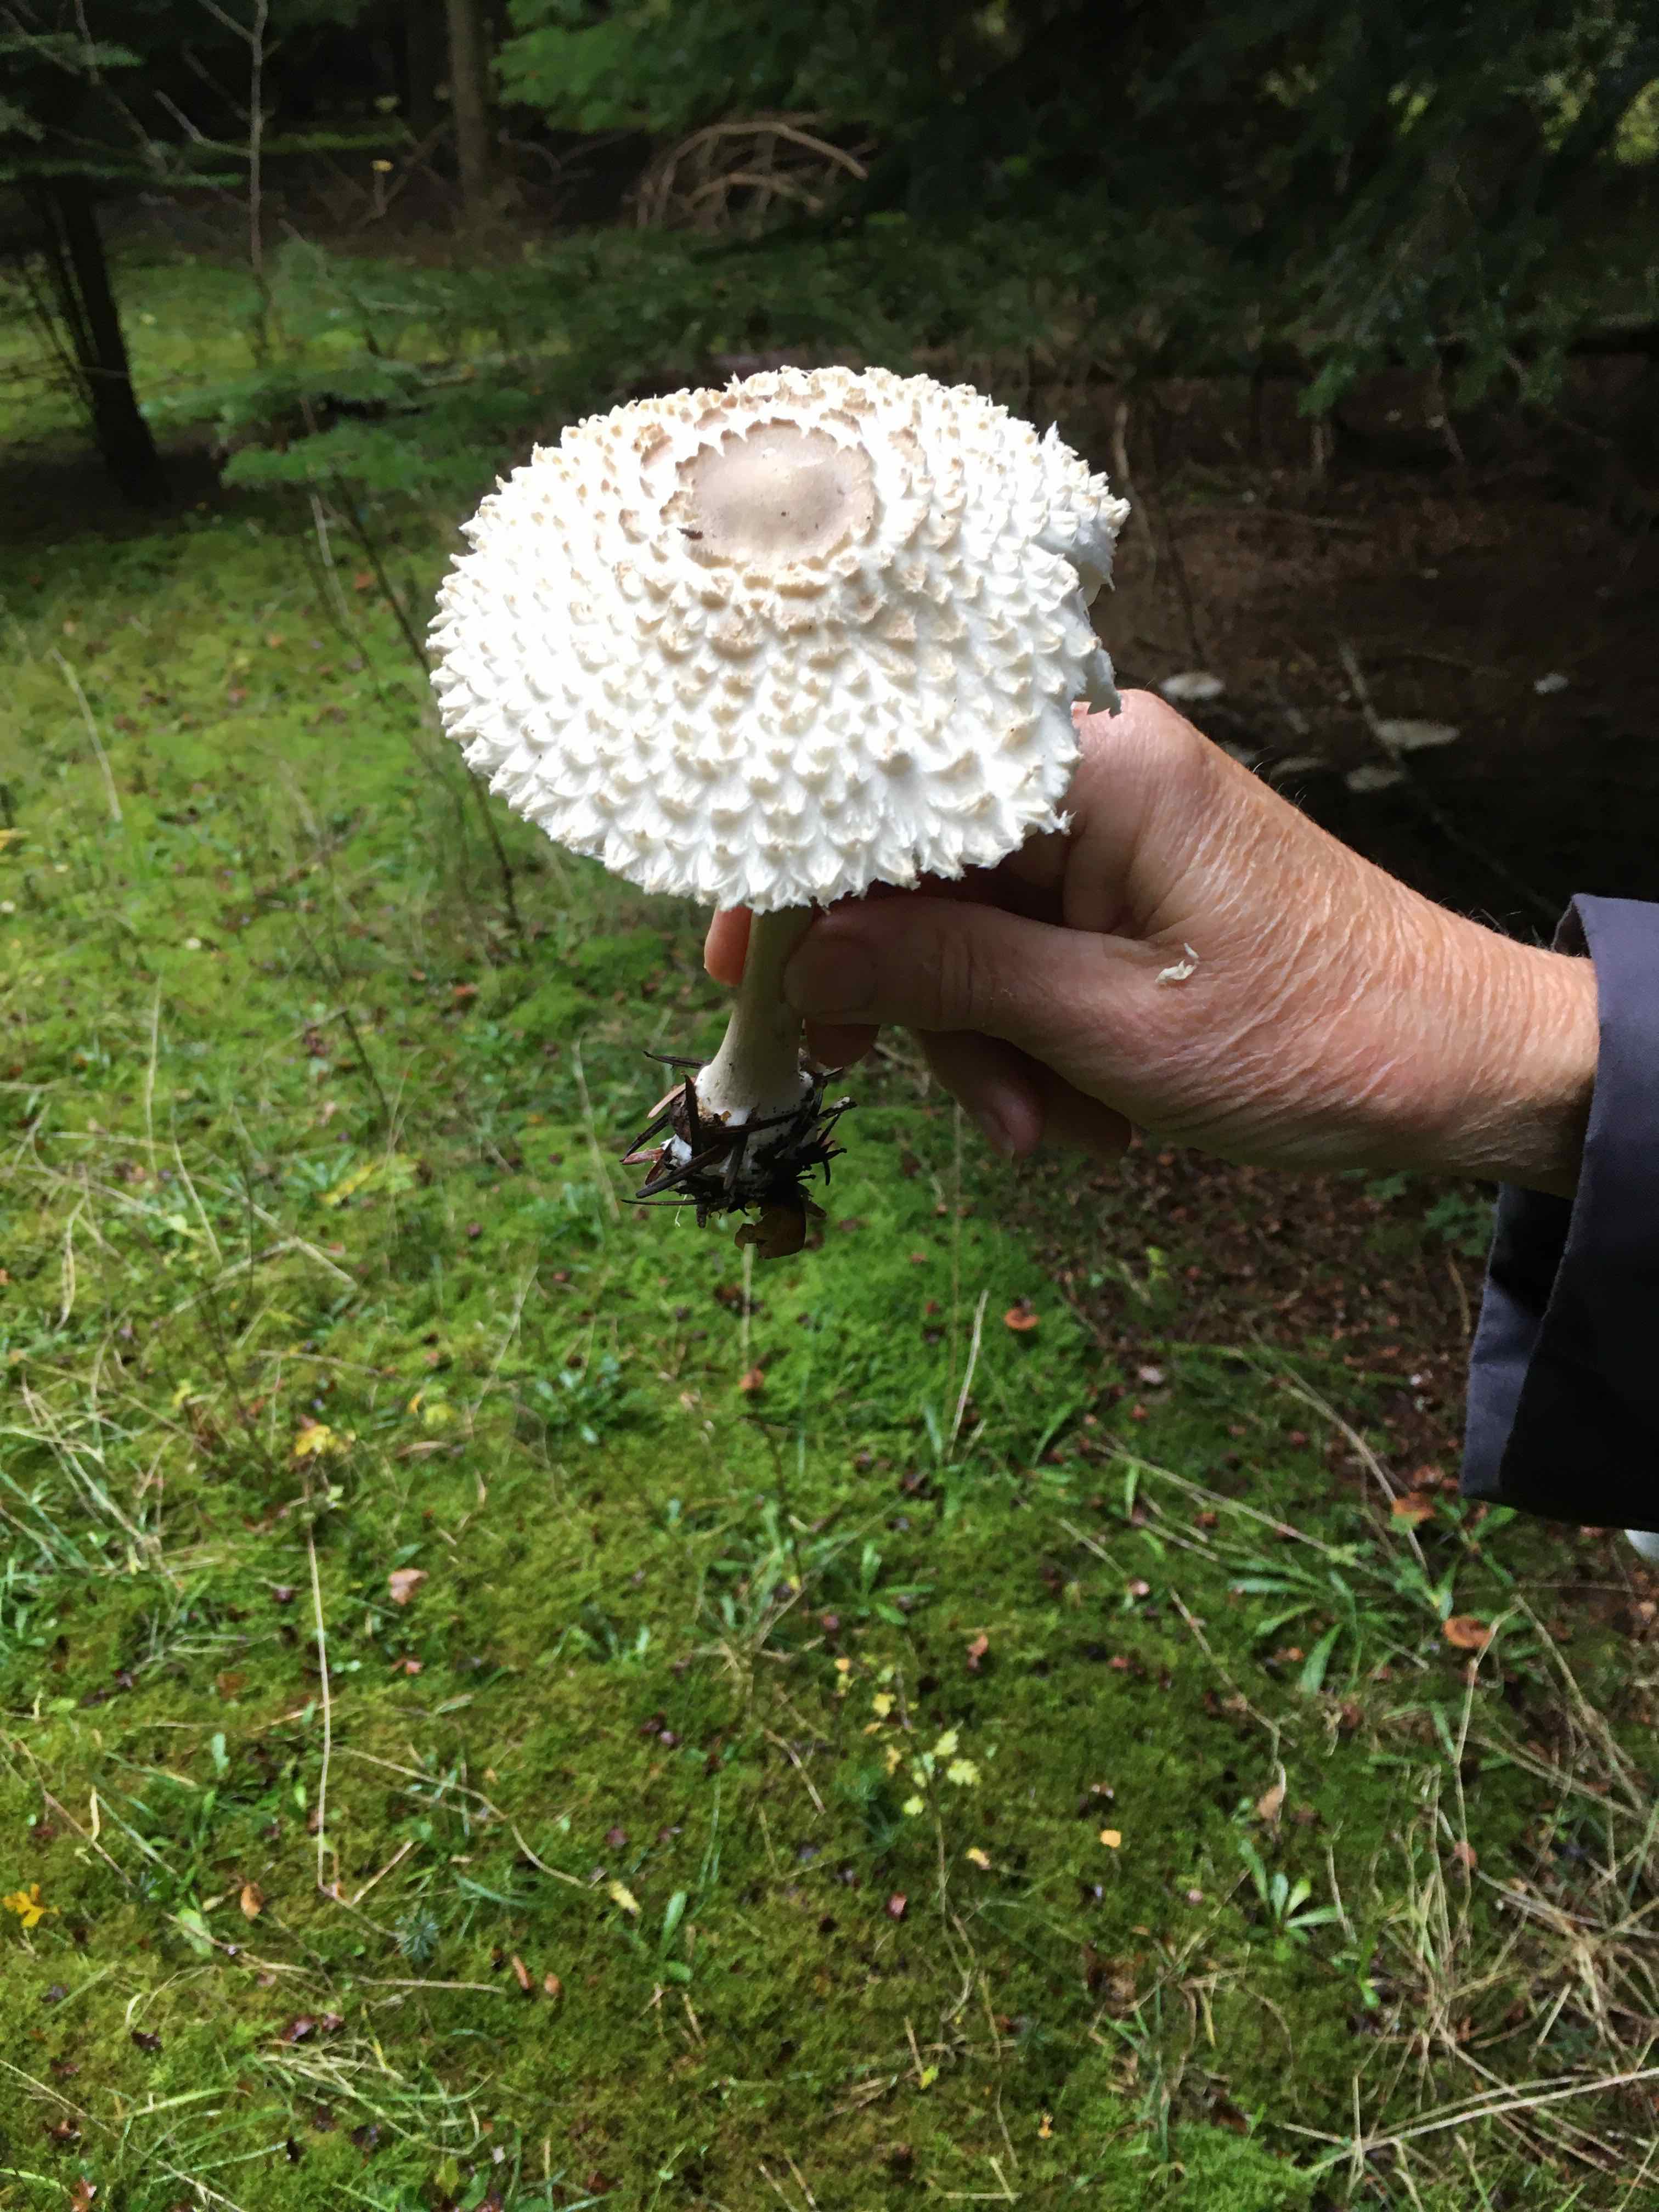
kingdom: Fungi
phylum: Basidiomycota
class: Agaricomycetes
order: Agaricales
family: Agaricaceae
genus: Leucoagaricus
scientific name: Leucoagaricus nympharum
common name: gran-silkehat
